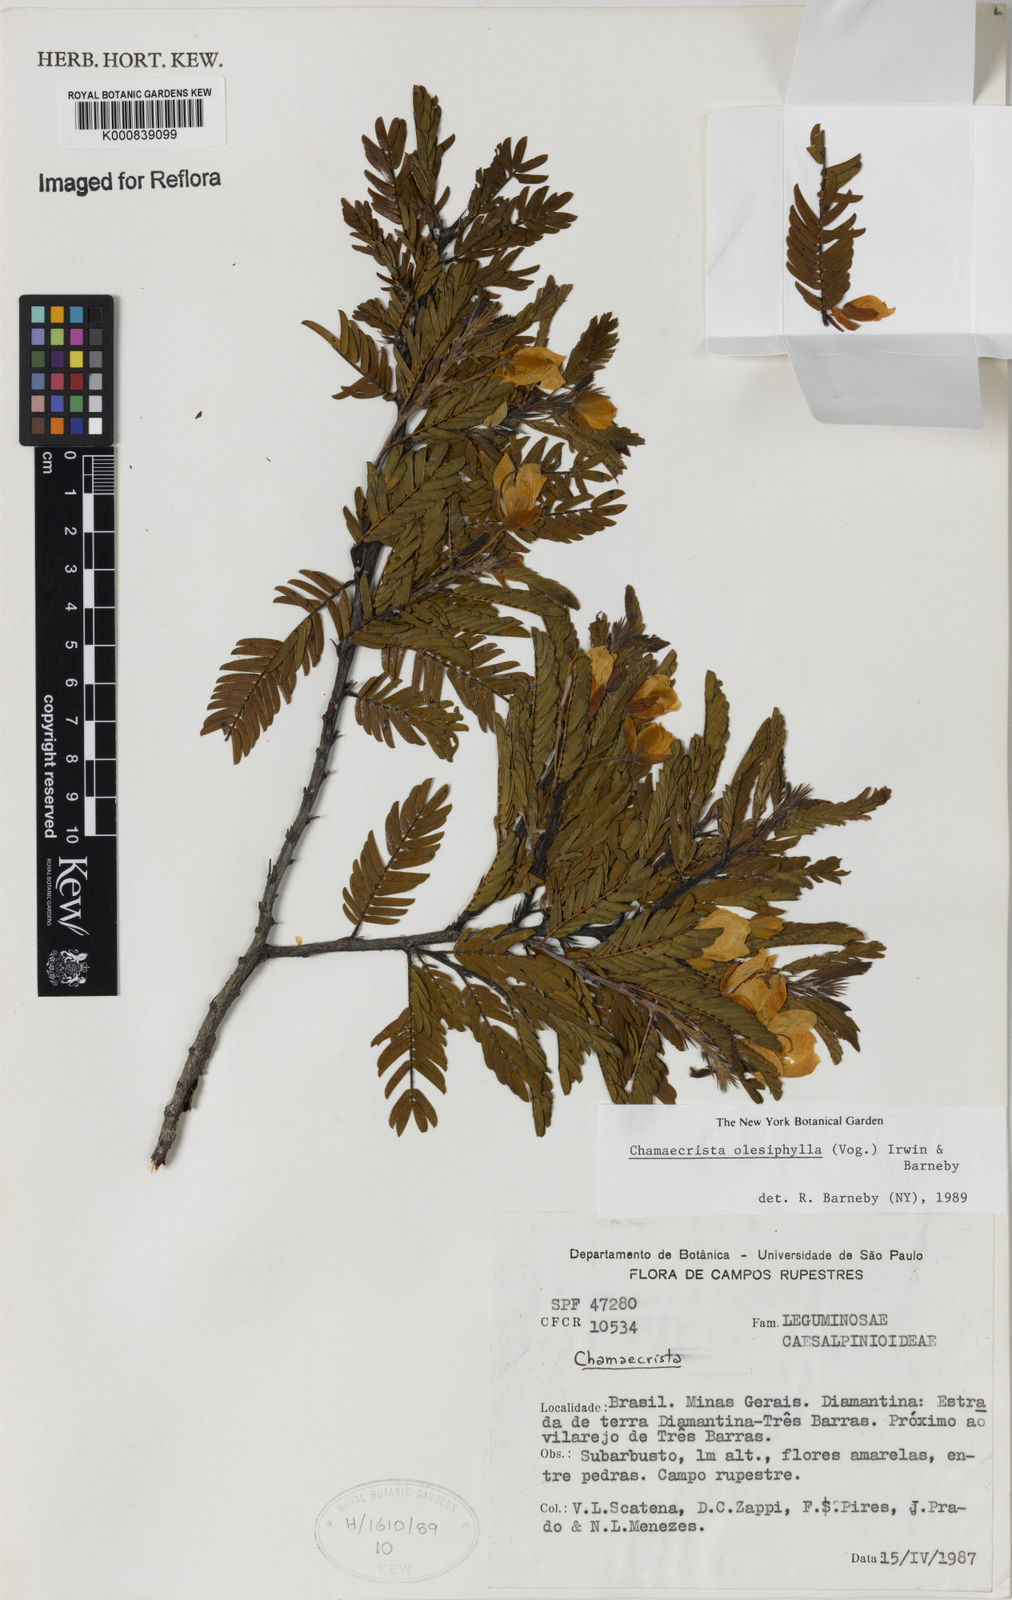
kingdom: Plantae
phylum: Tracheophyta
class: Magnoliopsida
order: Fabales
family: Fabaceae
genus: Chamaecrista
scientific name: Chamaecrista
